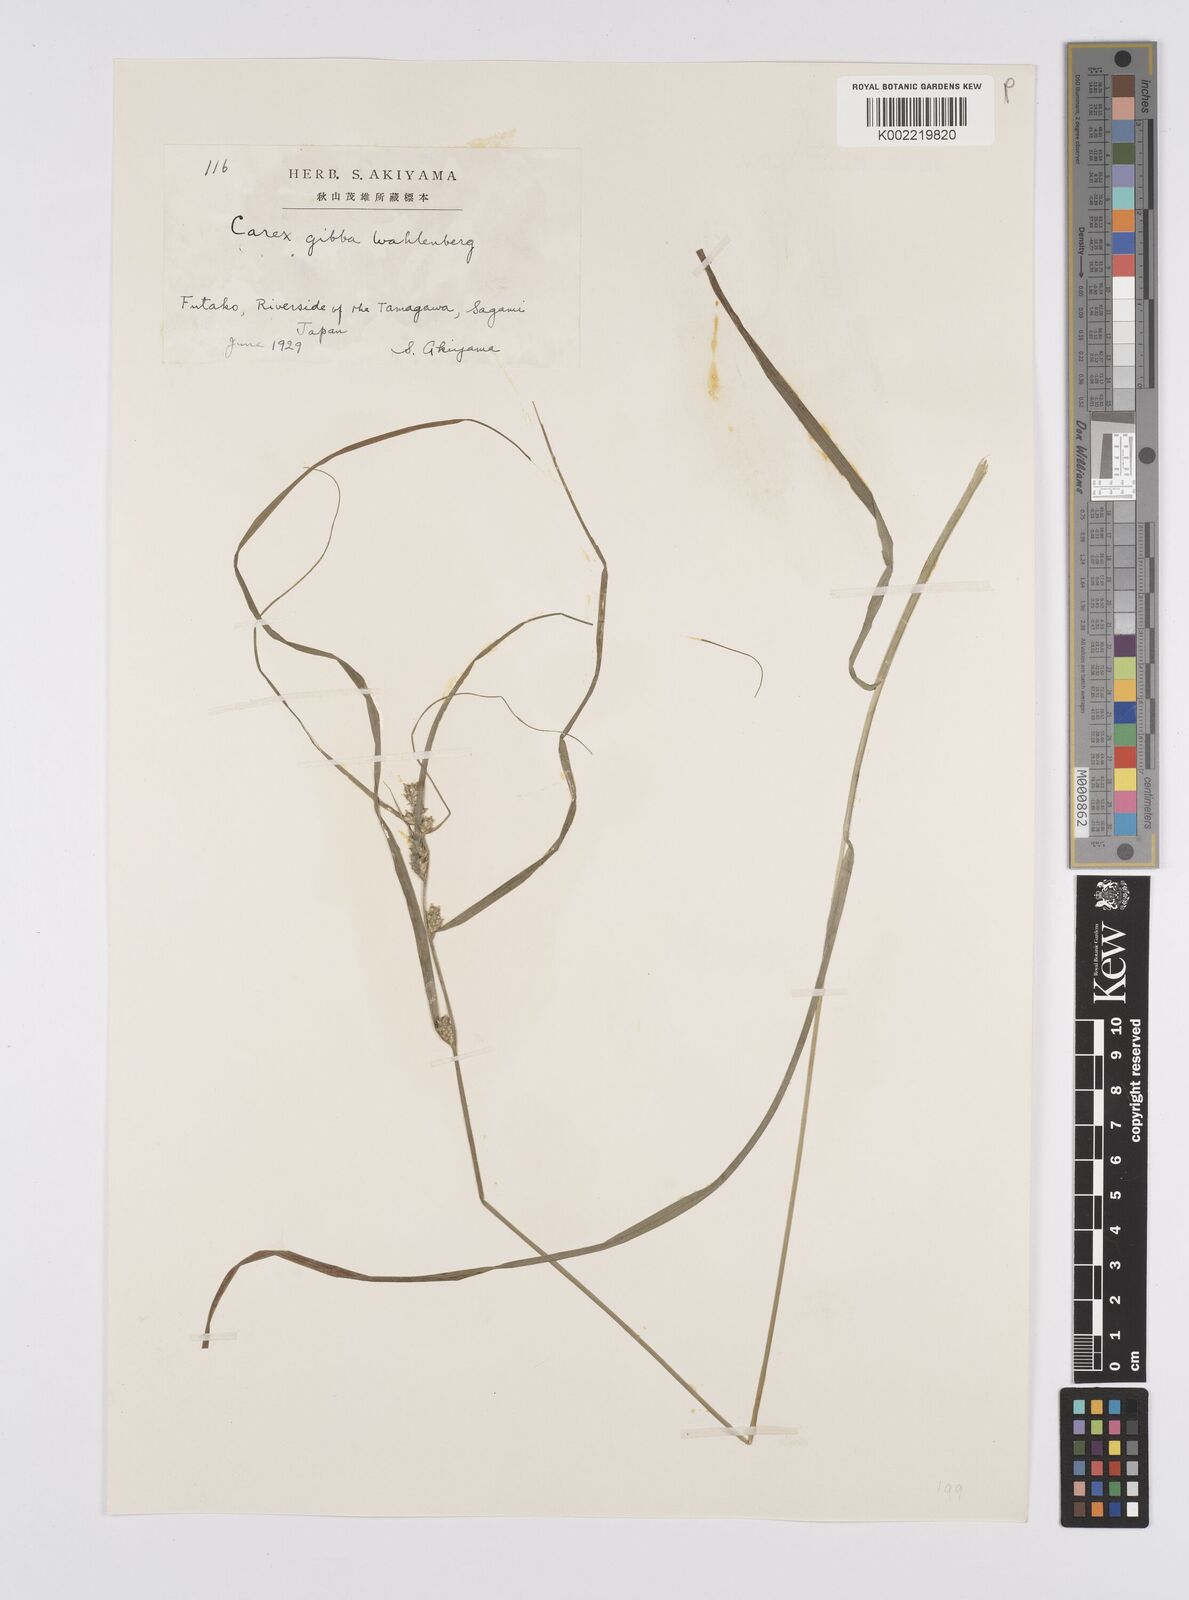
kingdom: Plantae
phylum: Tracheophyta
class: Liliopsida
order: Poales
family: Cyperaceae
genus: Carex
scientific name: Carex gibba
